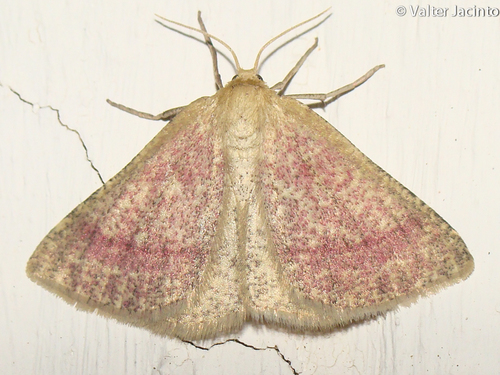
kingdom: Animalia
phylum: Arthropoda
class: Insecta
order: Lepidoptera
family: Geometridae
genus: Aplasta
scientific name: Aplasta ononaria
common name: Rest harrow
